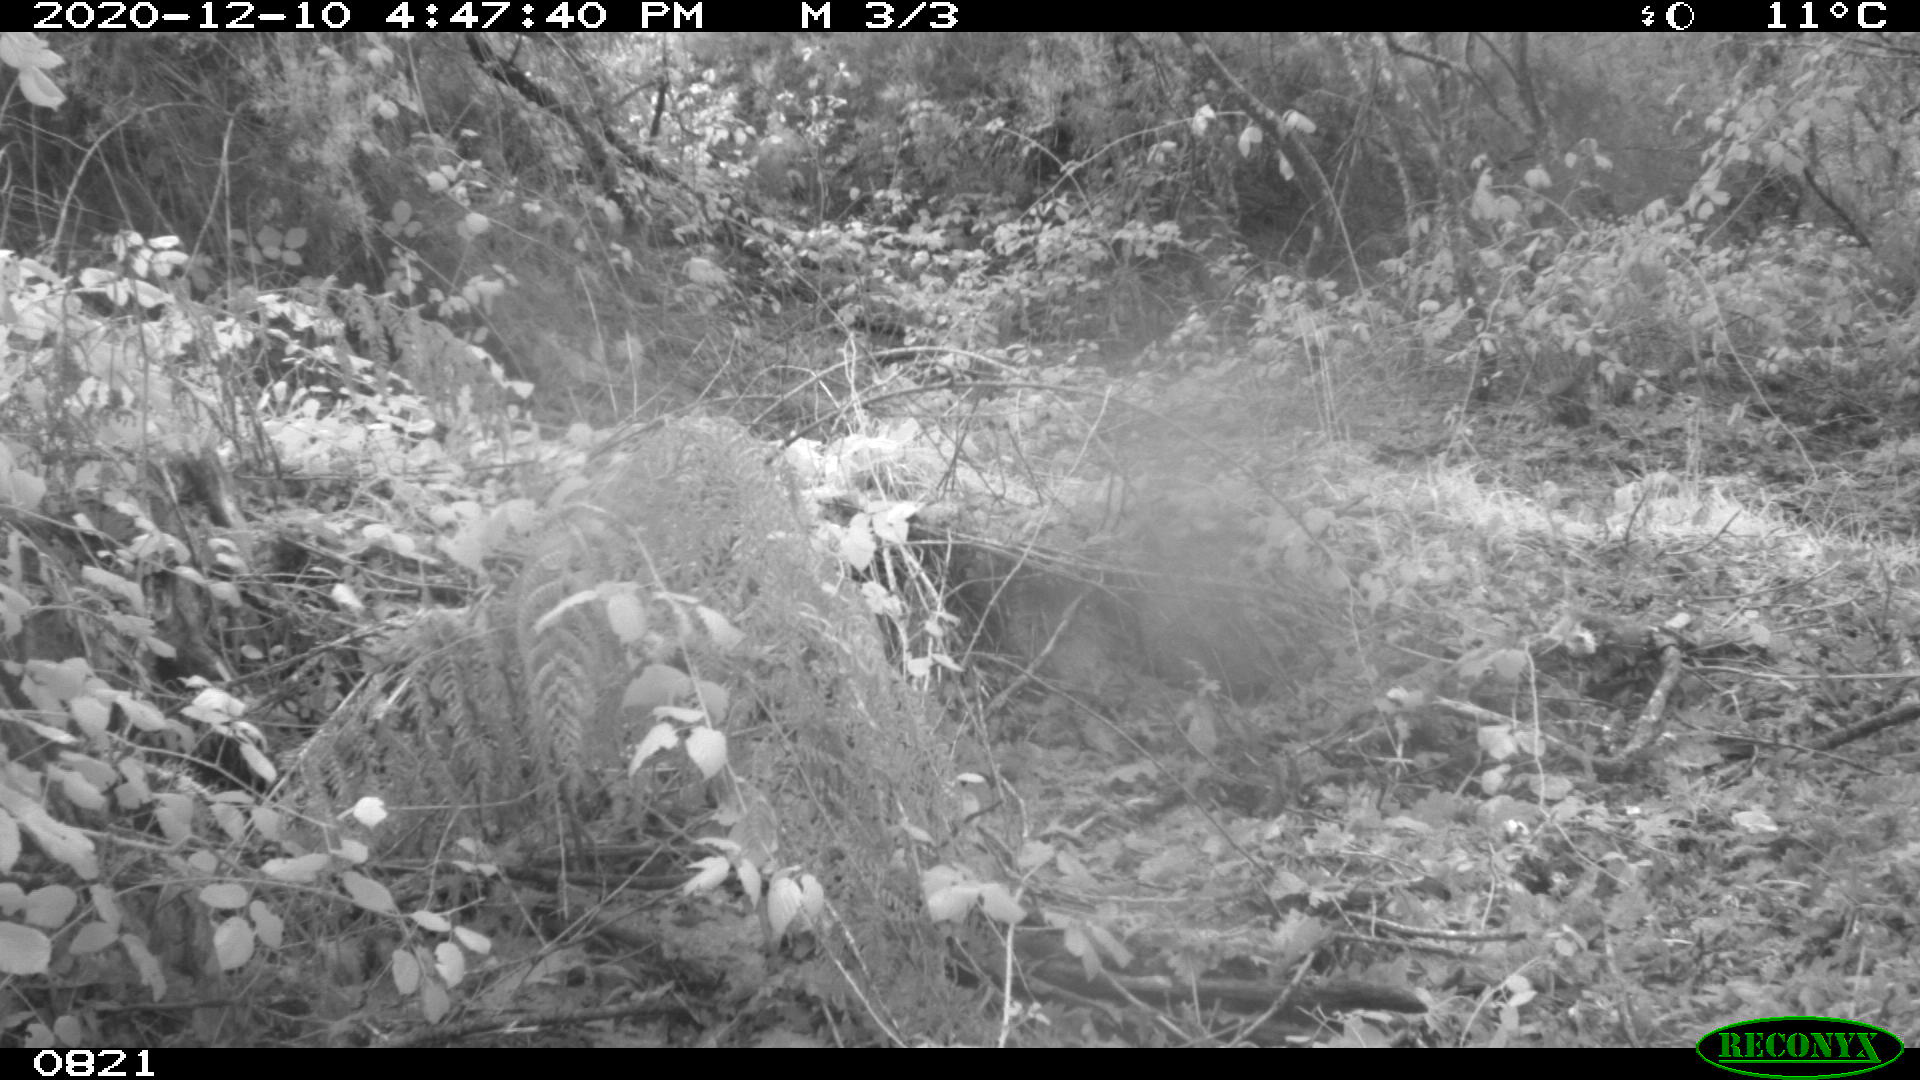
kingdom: Animalia
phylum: Chordata
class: Mammalia
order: Artiodactyla
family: Bovidae
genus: Bos
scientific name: Bos taurus
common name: Domesticated cattle
